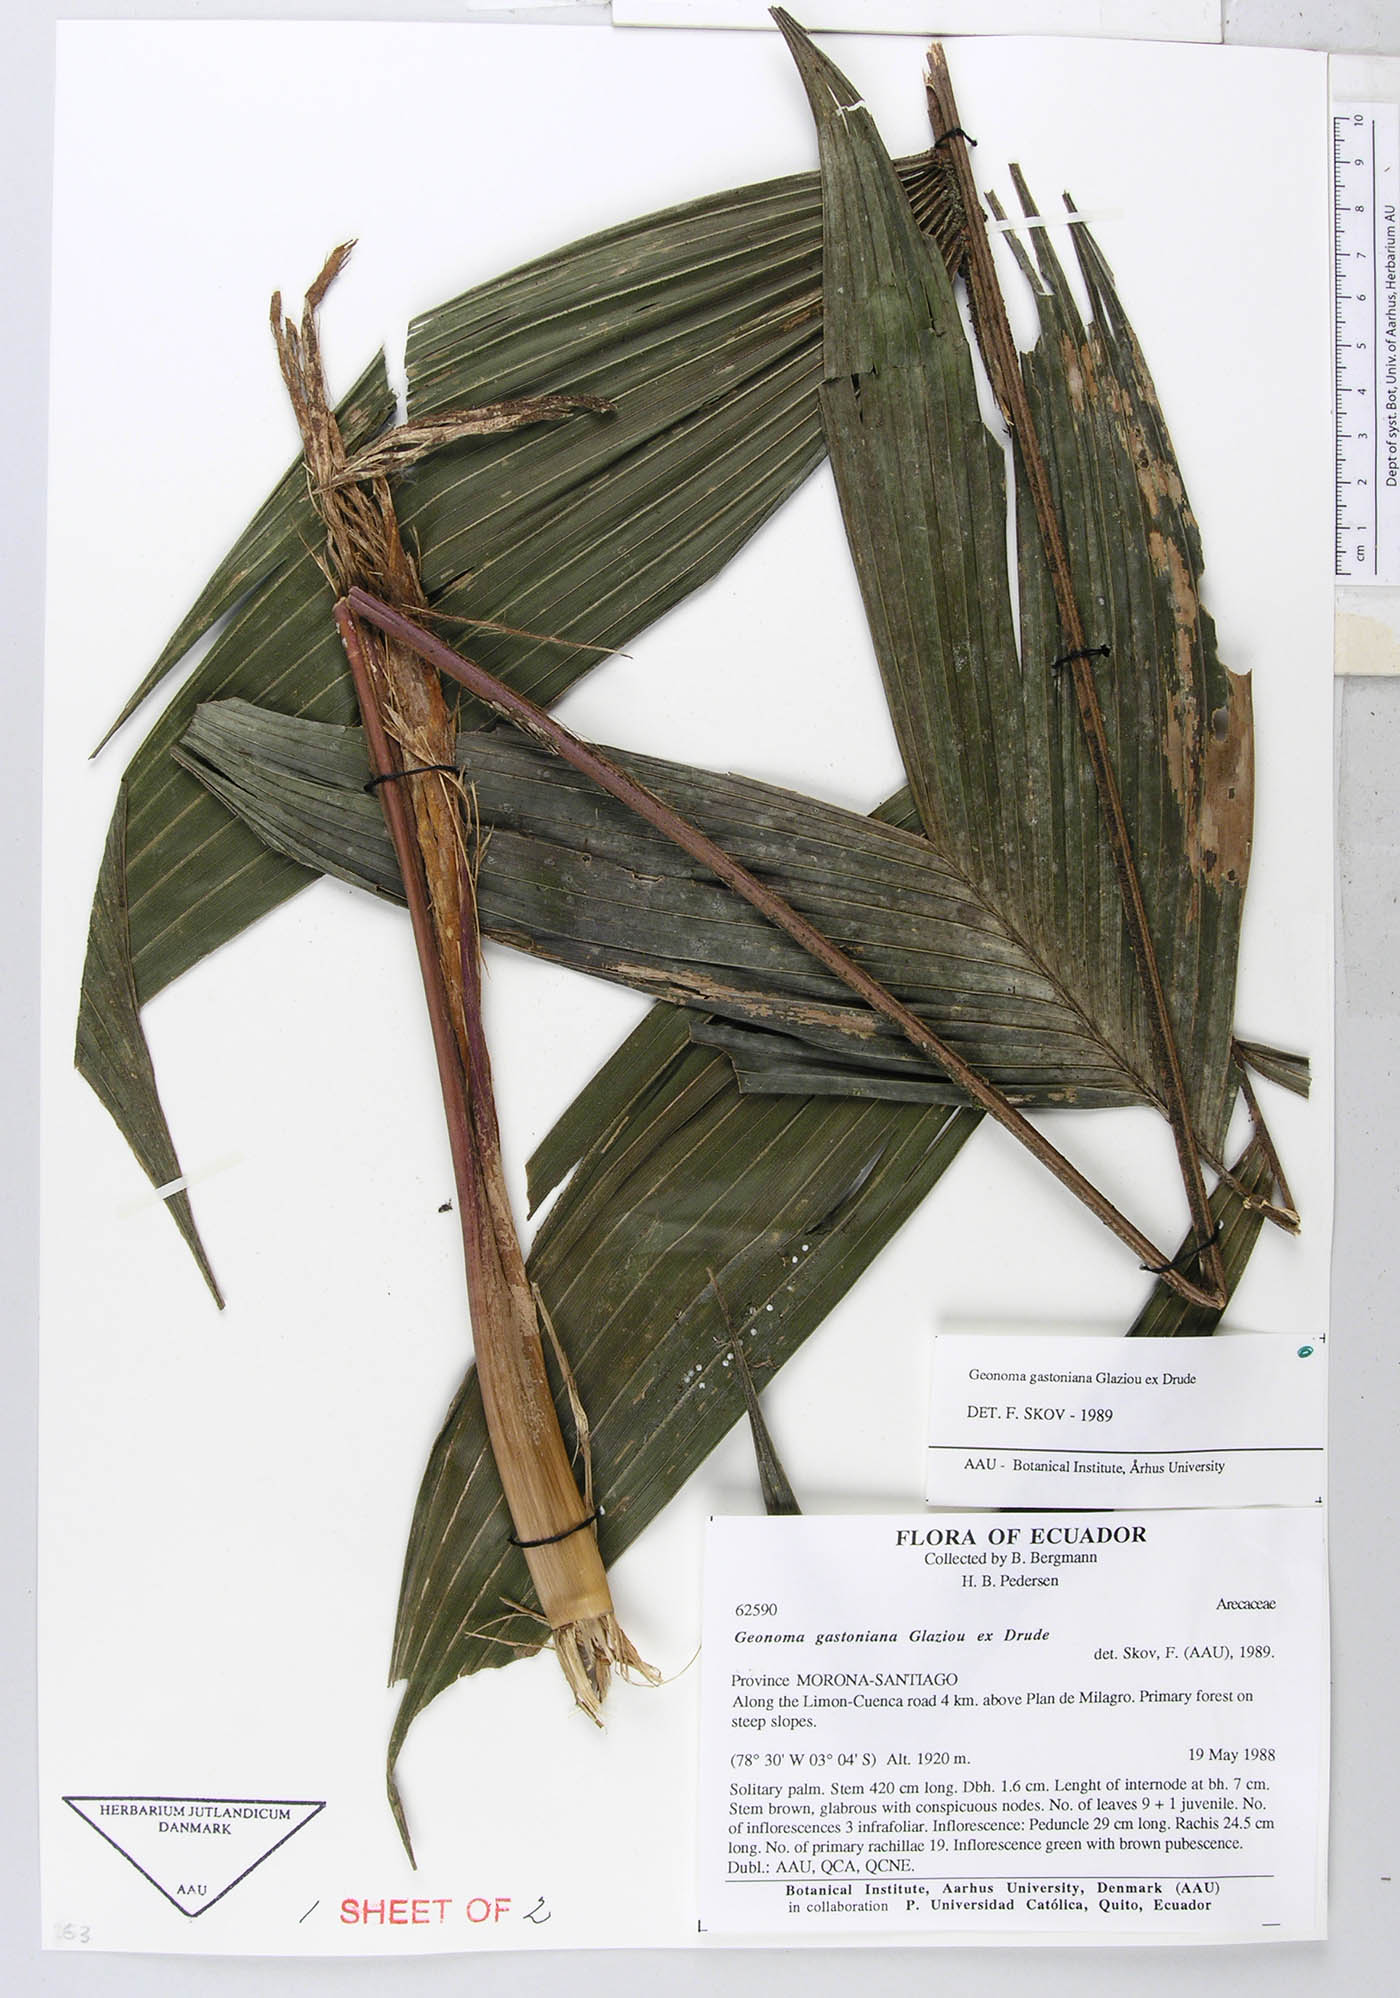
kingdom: Plantae
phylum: Tracheophyta
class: Liliopsida
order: Arecales
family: Arecaceae
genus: Geonoma
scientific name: Geonoma undata
